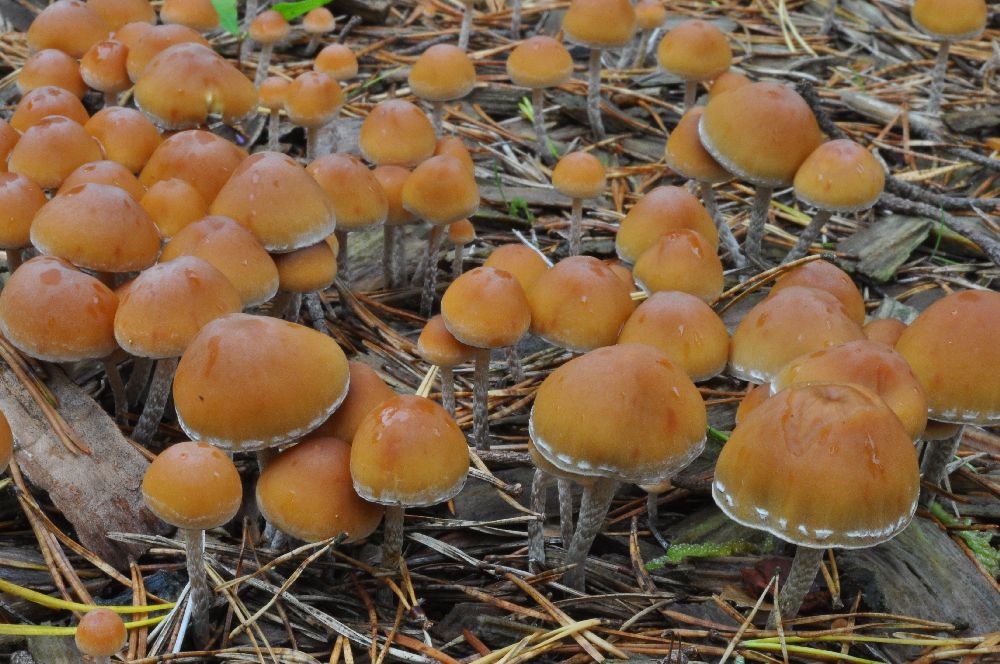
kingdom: Fungi
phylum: Basidiomycota
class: Agaricomycetes
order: Agaricales
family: Strophariaceae
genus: Hypholoma
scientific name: Hypholoma marginatum
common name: enlig svovlhat
